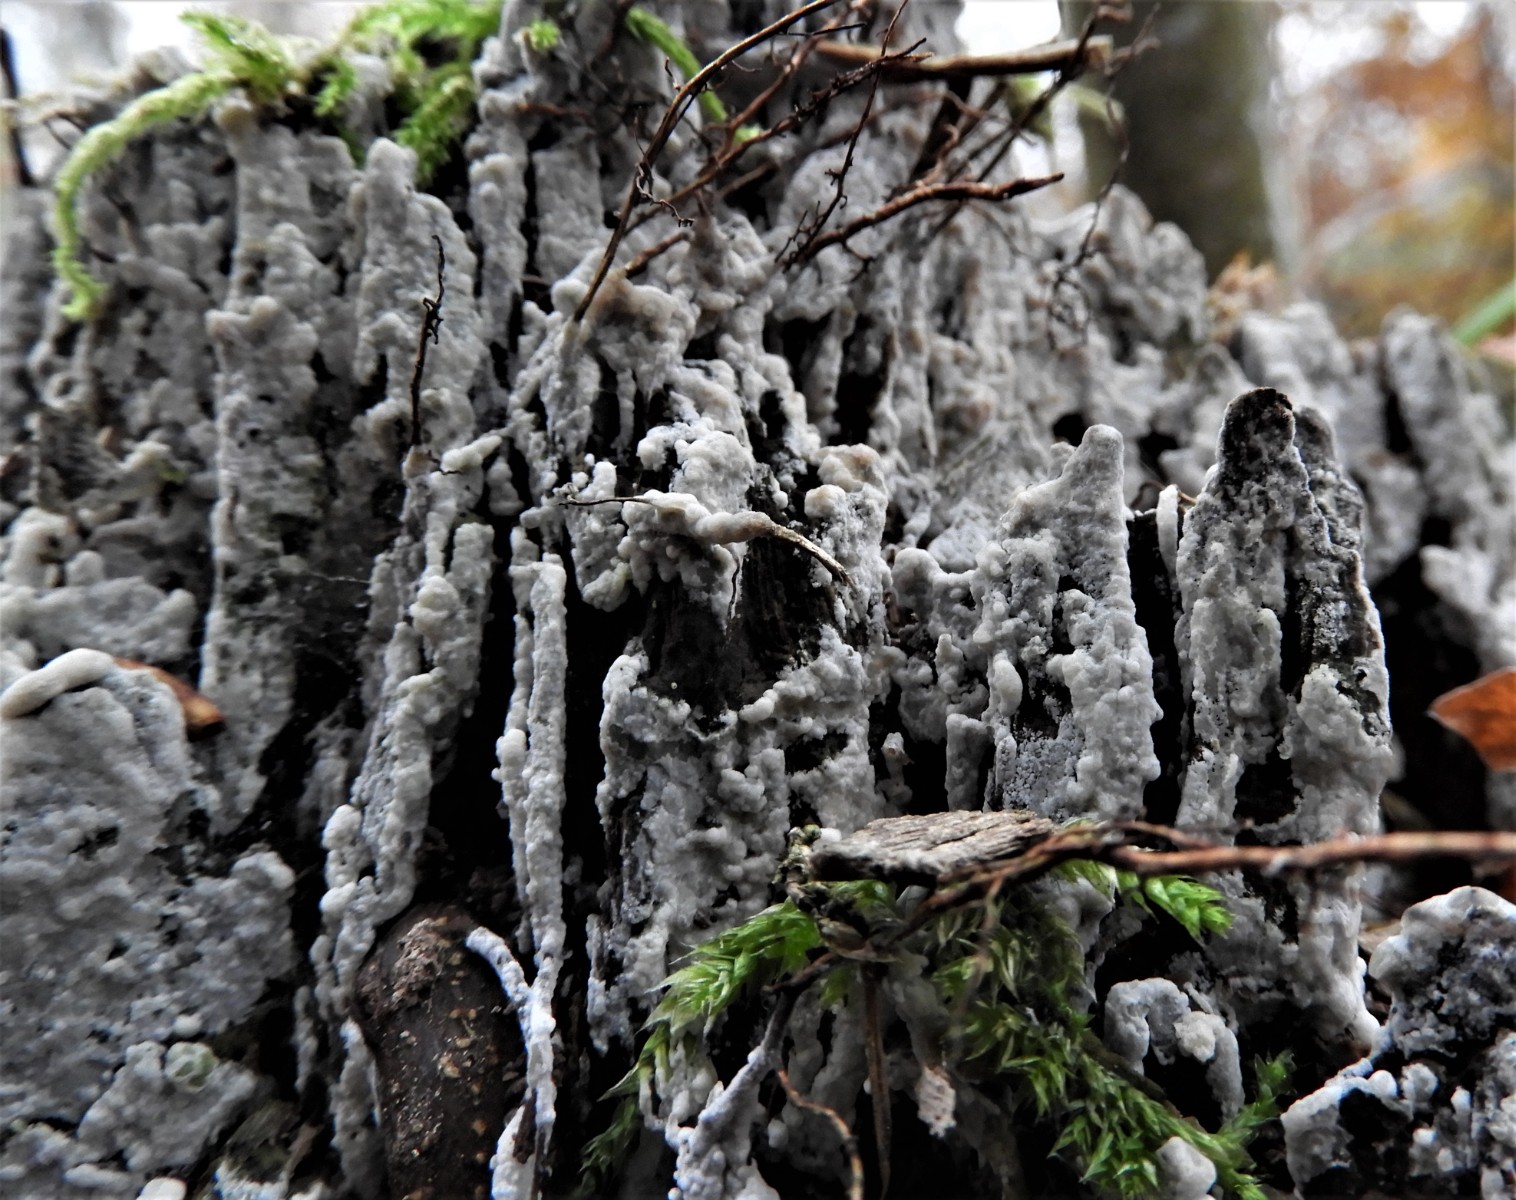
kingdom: Fungi
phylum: Basidiomycota
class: Agaricomycetes
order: Corticiales
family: Corticiaceae
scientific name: Corticiaceae
